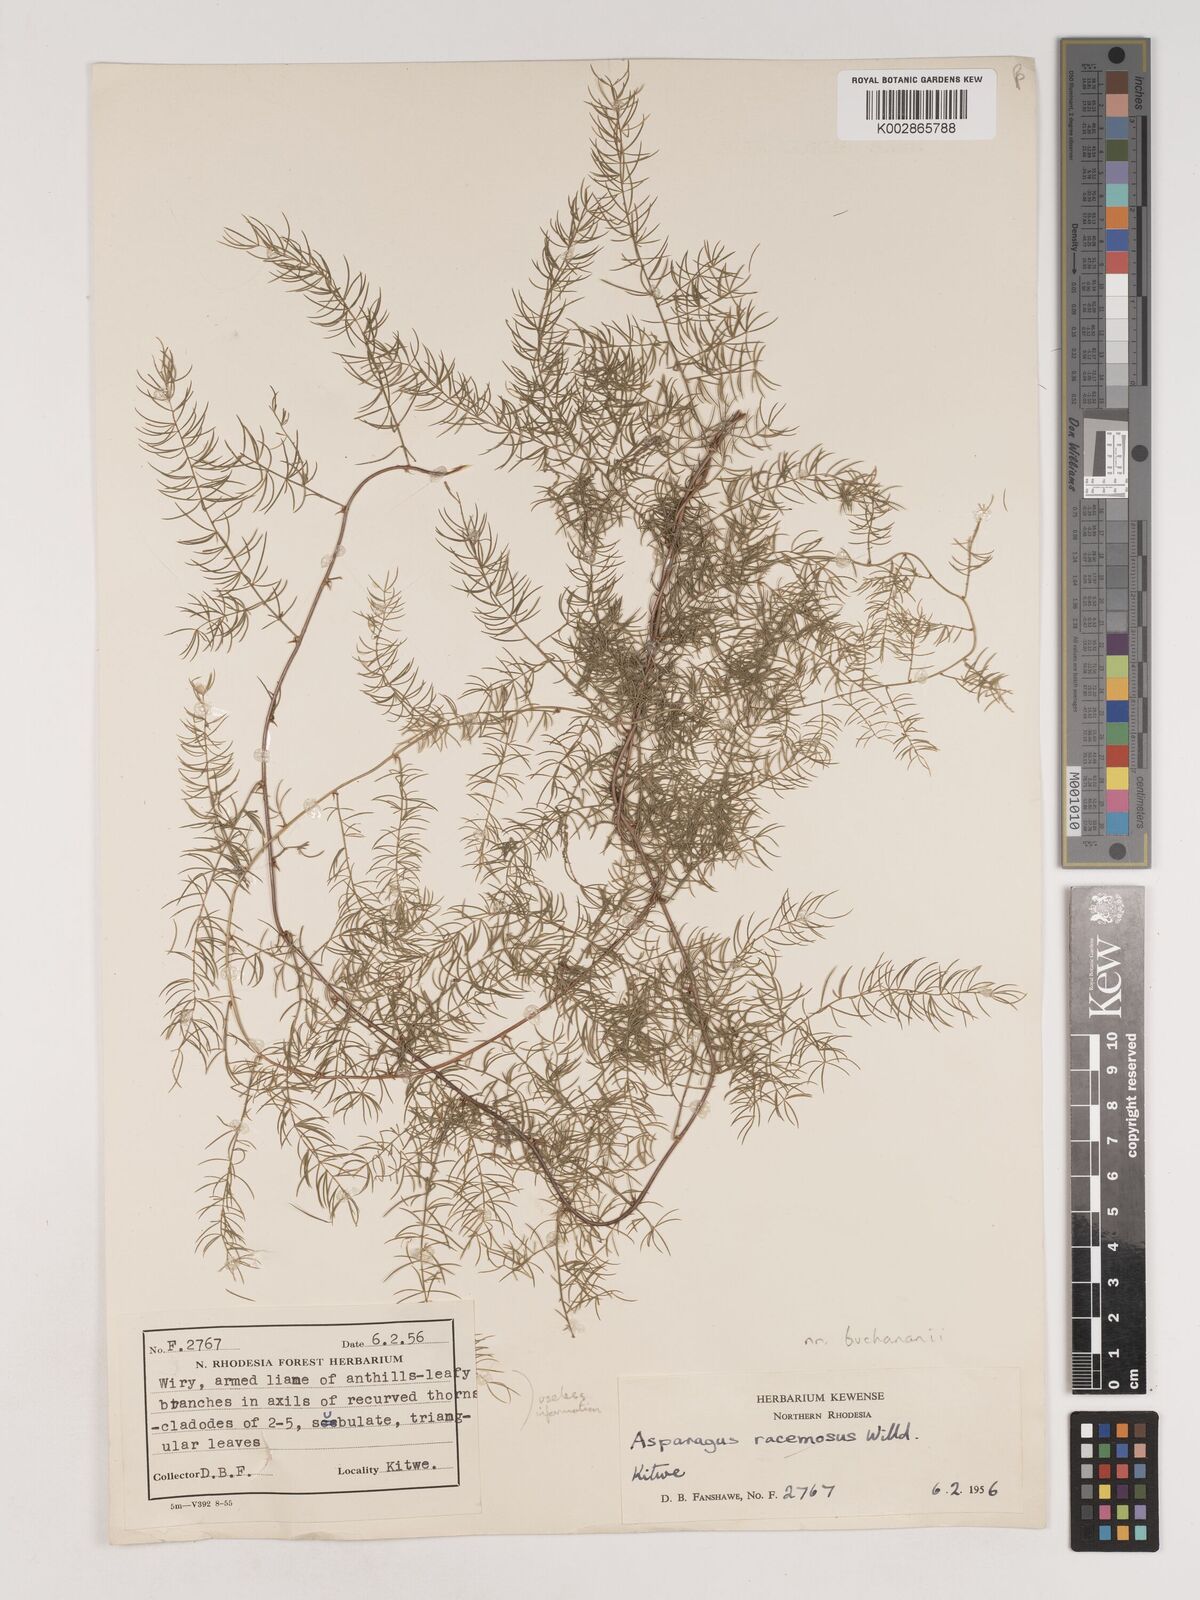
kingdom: Plantae
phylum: Tracheophyta
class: Liliopsida
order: Asparagales
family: Asparagaceae
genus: Asparagus
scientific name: Asparagus buchananii
